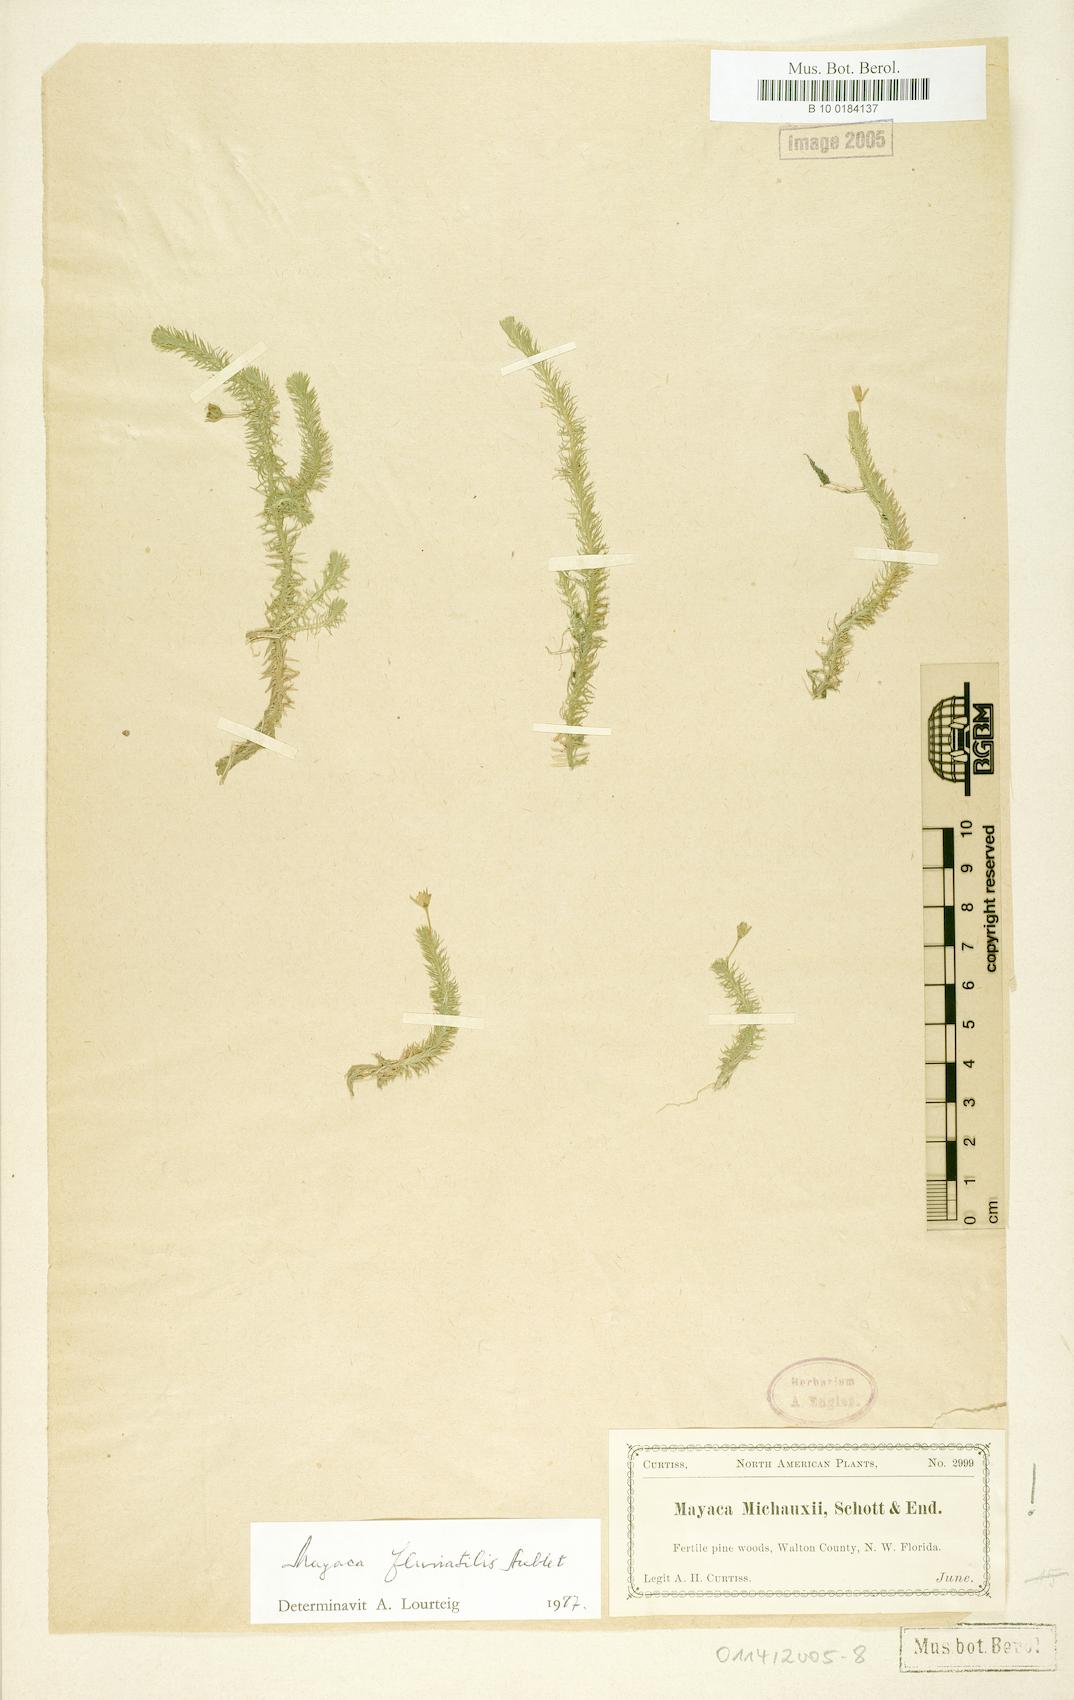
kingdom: Plantae
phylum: Tracheophyta
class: Liliopsida
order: Poales
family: Mayacaceae
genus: Mayaca
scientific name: Mayaca fluviatilis
